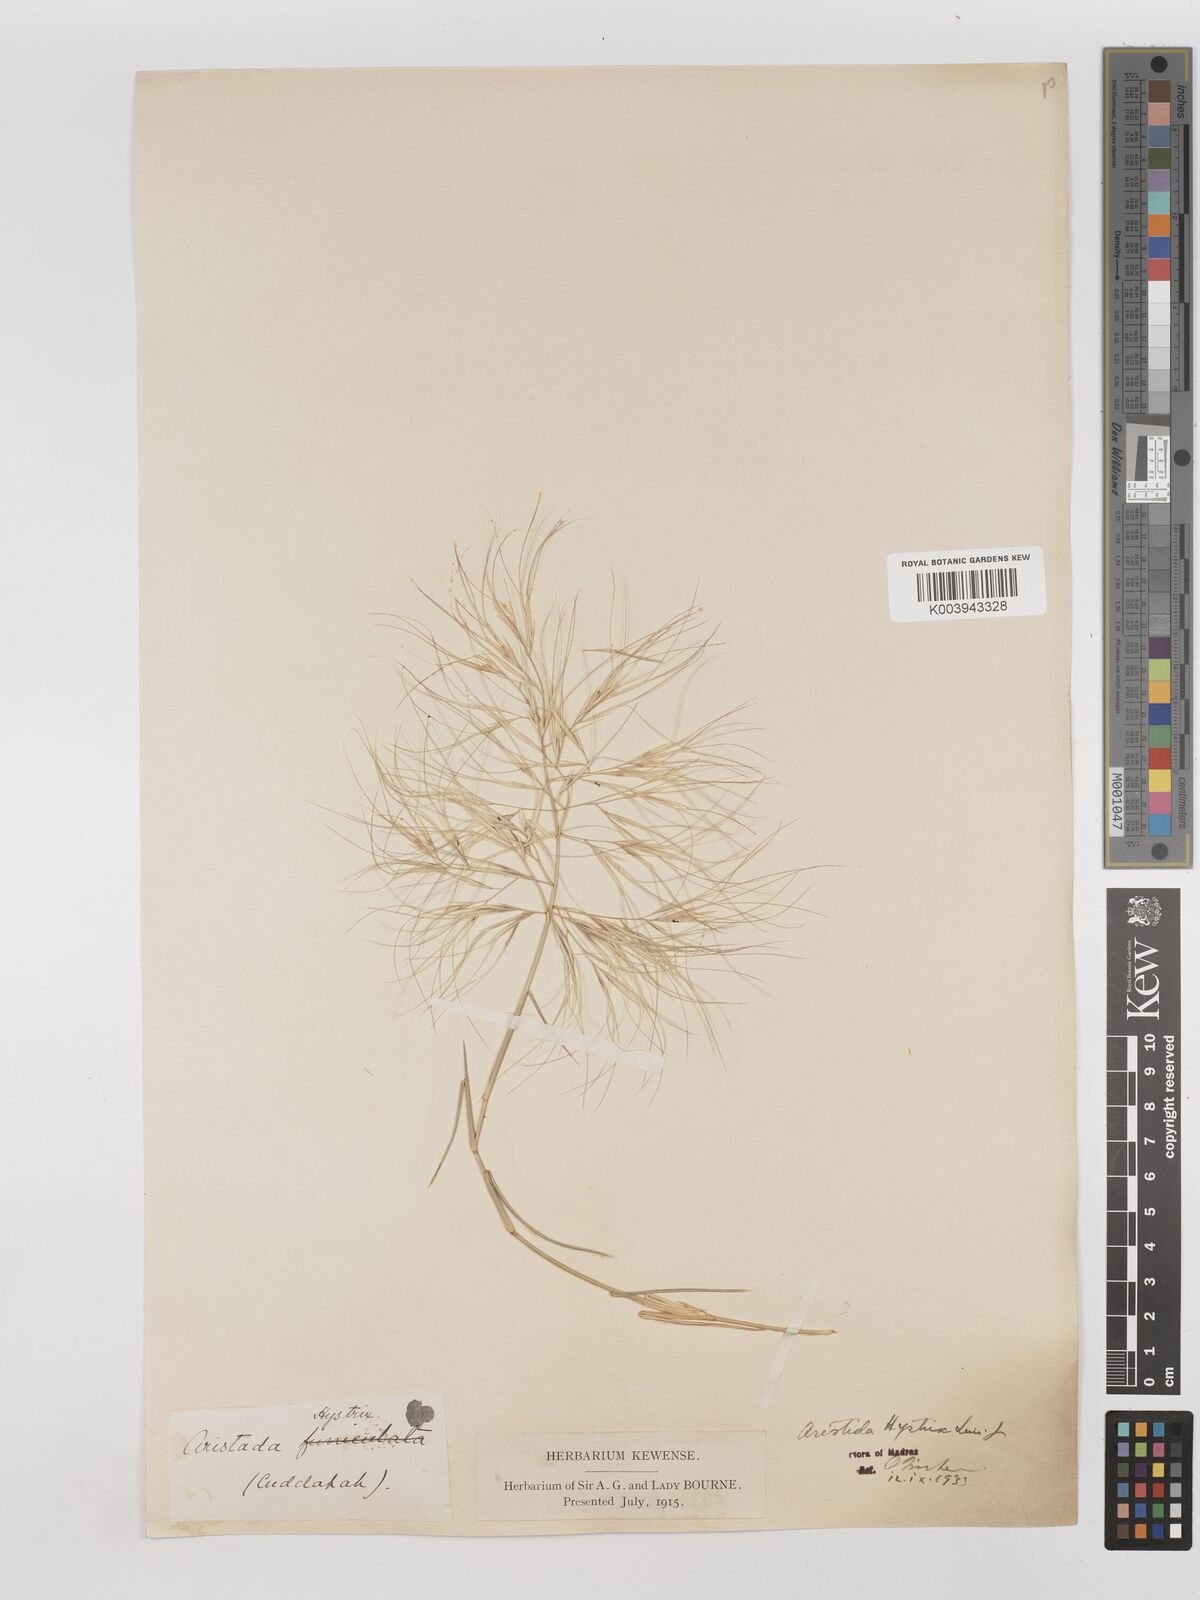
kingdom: Plantae
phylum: Tracheophyta
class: Liliopsida
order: Poales
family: Poaceae
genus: Aristida
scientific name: Aristida hystrix
